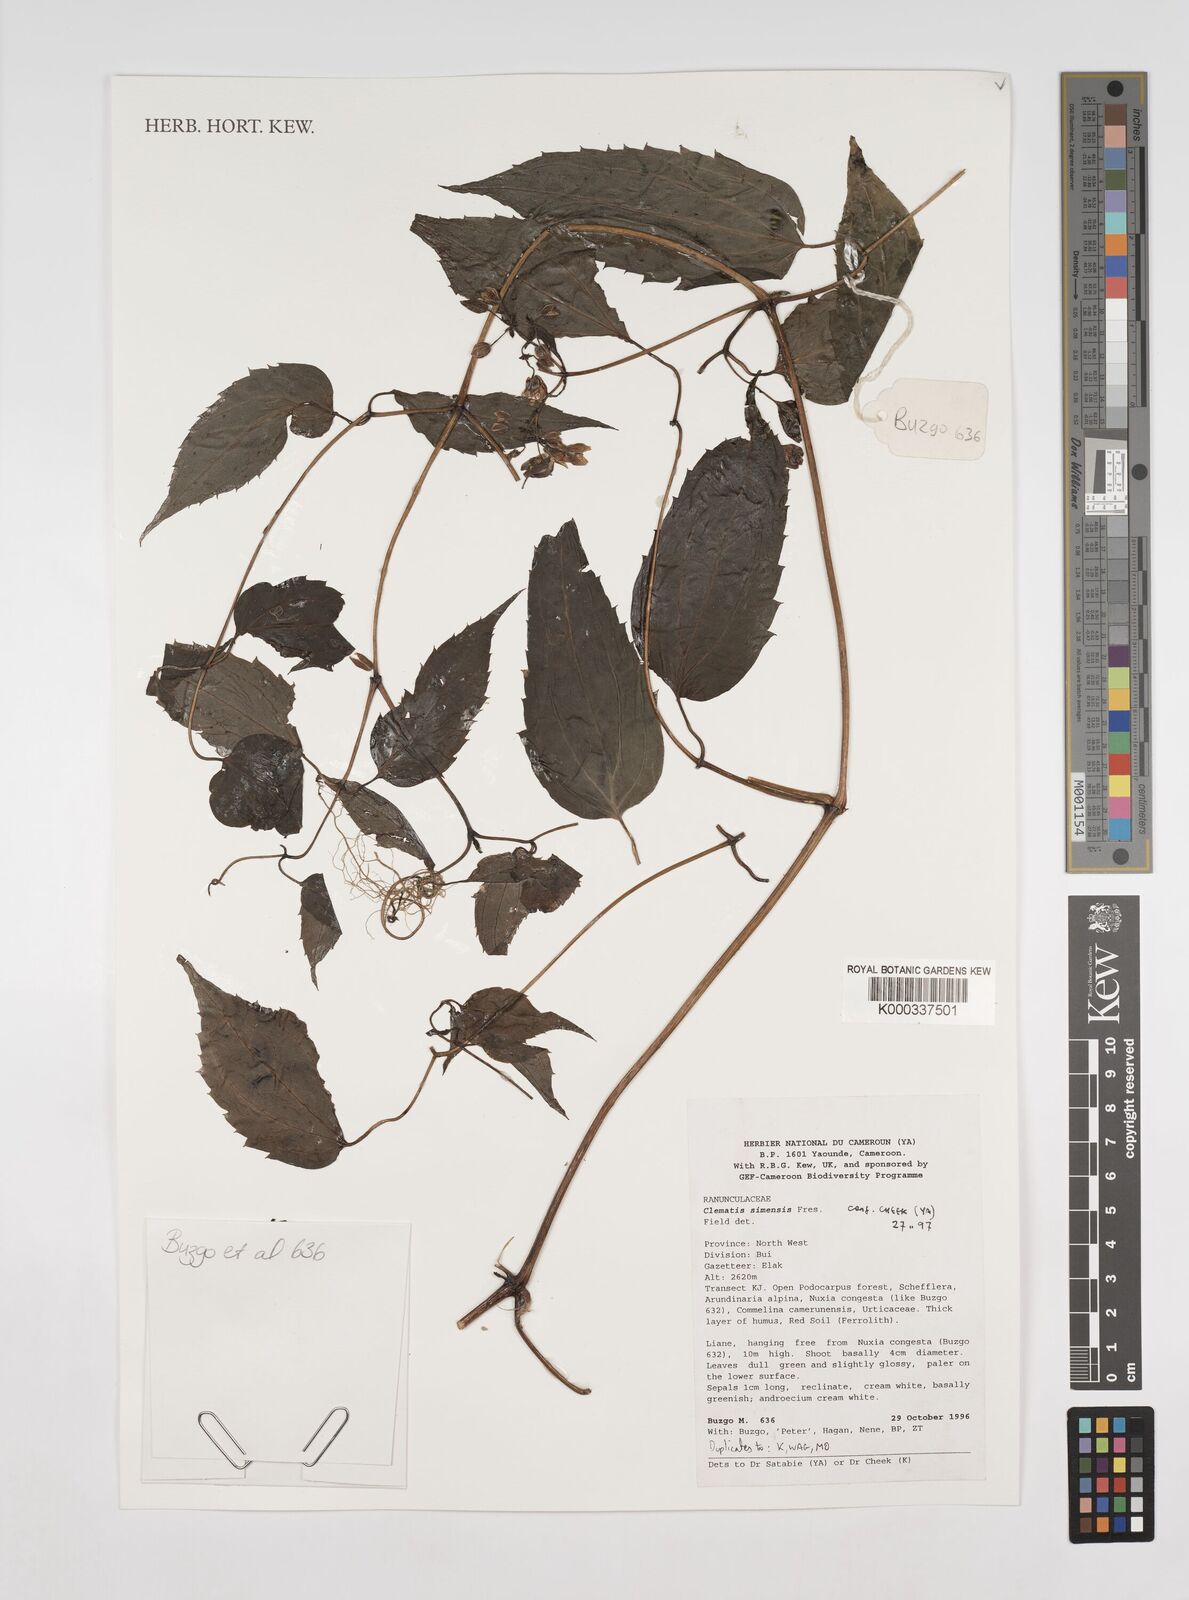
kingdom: Plantae
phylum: Tracheophyta
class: Magnoliopsida
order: Ranunculales
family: Ranunculaceae
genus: Clematis
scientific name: Clematis simensis
